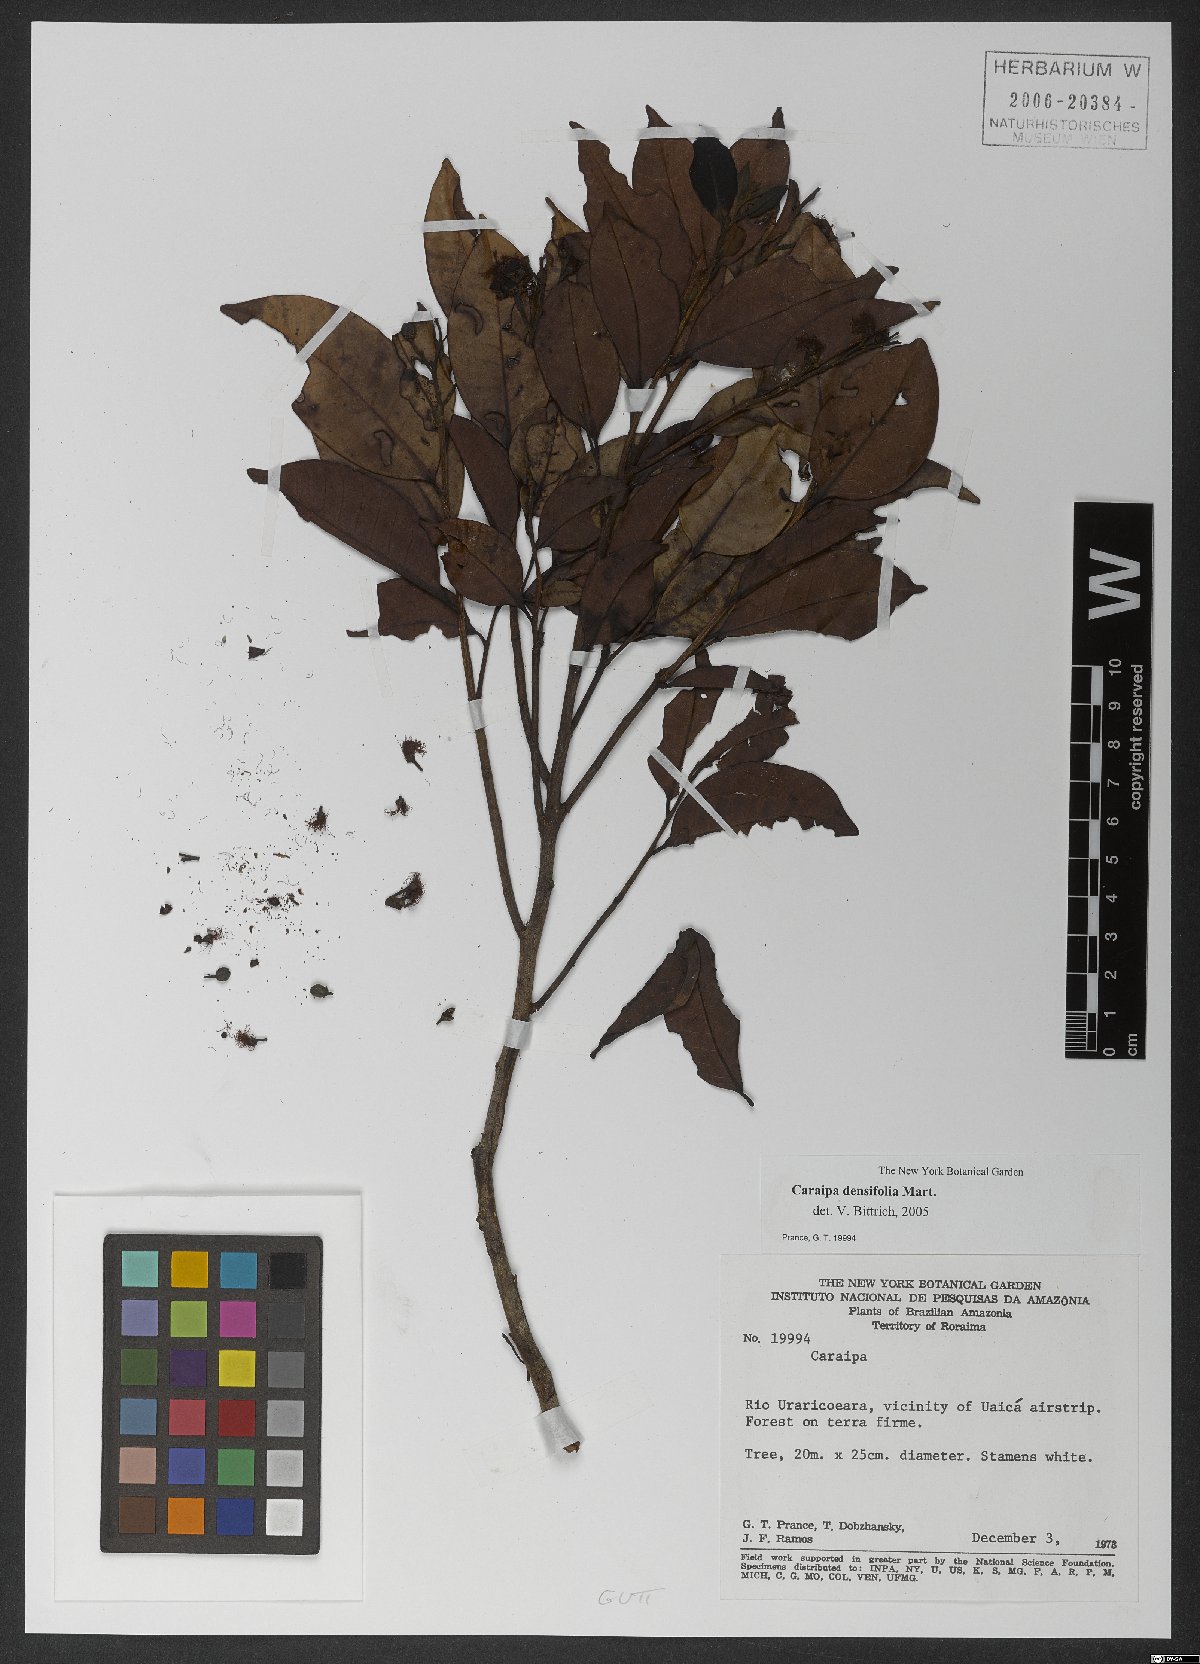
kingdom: Plantae
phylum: Tracheophyta
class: Magnoliopsida
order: Malpighiales
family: Calophyllaceae
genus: Caraipa
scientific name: Caraipa densifolia
